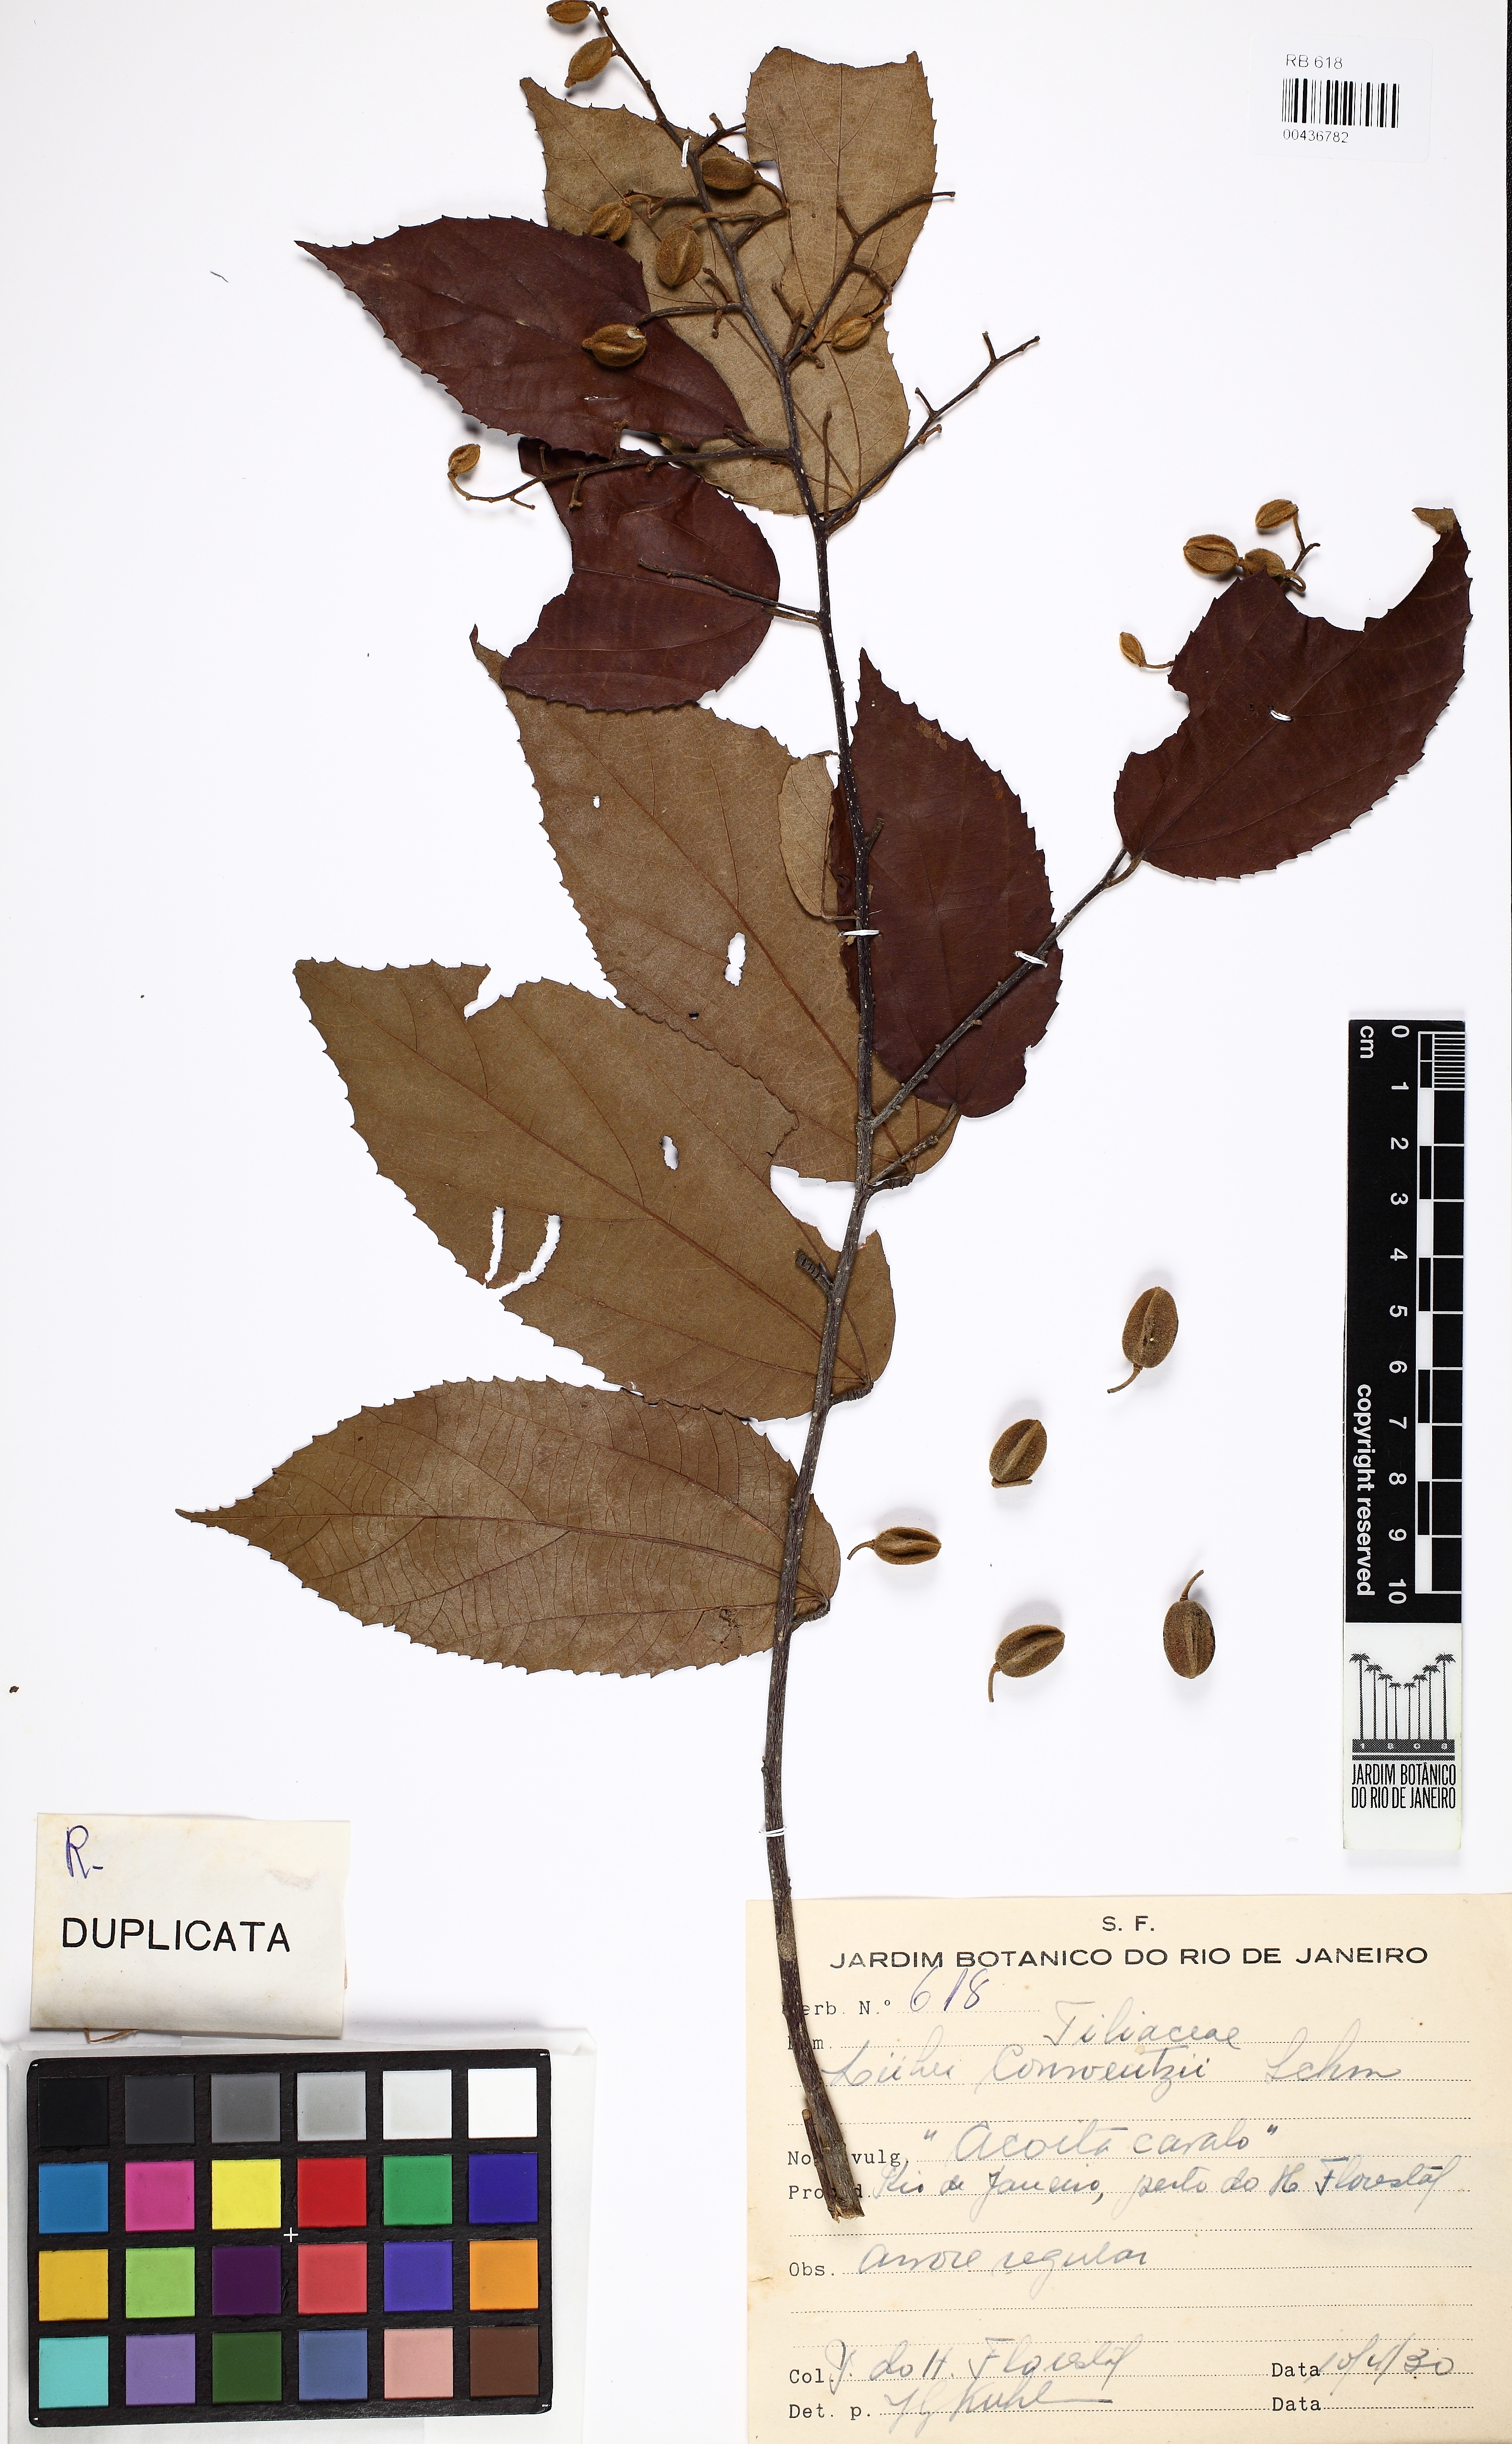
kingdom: Plantae
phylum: Tracheophyta
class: Magnoliopsida
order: Malvales
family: Malvaceae
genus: Luehea
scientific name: Luehea conwentzii
